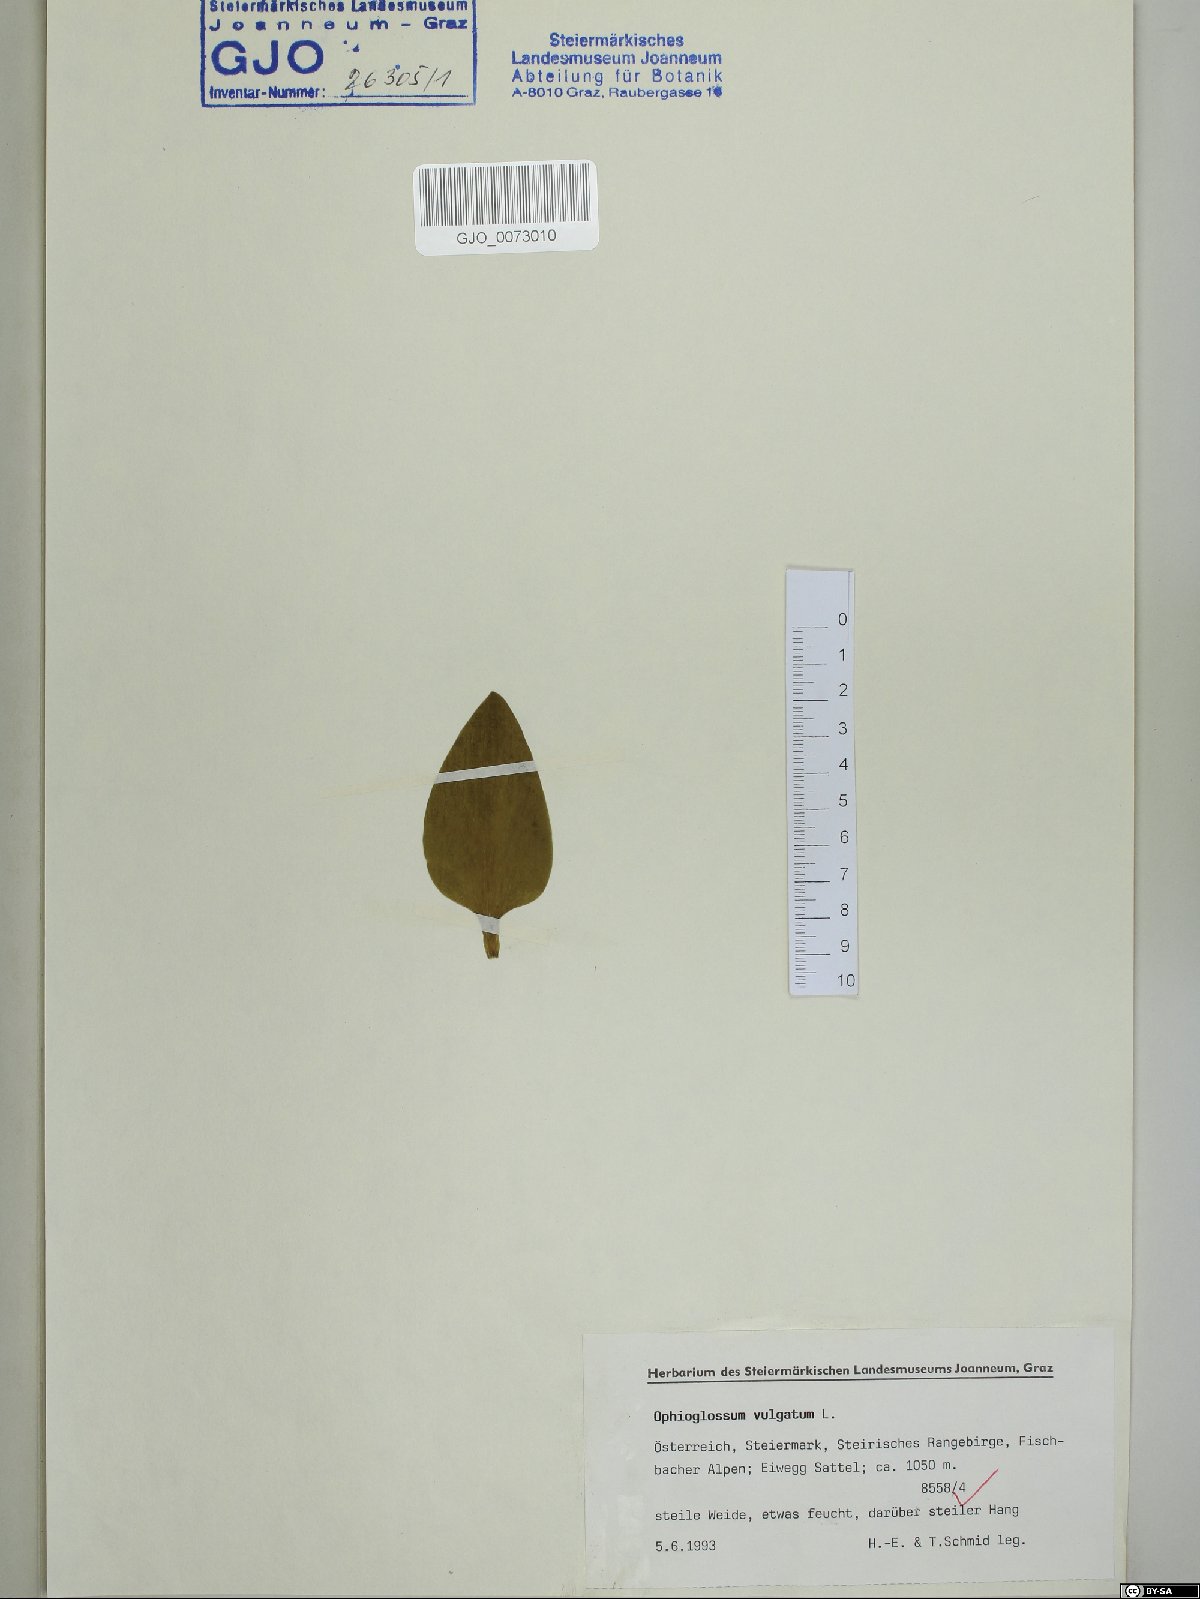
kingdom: Plantae
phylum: Tracheophyta
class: Polypodiopsida
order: Ophioglossales
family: Ophioglossaceae
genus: Ophioglossum
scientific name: Ophioglossum vulgatum
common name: Adder's-tongue
